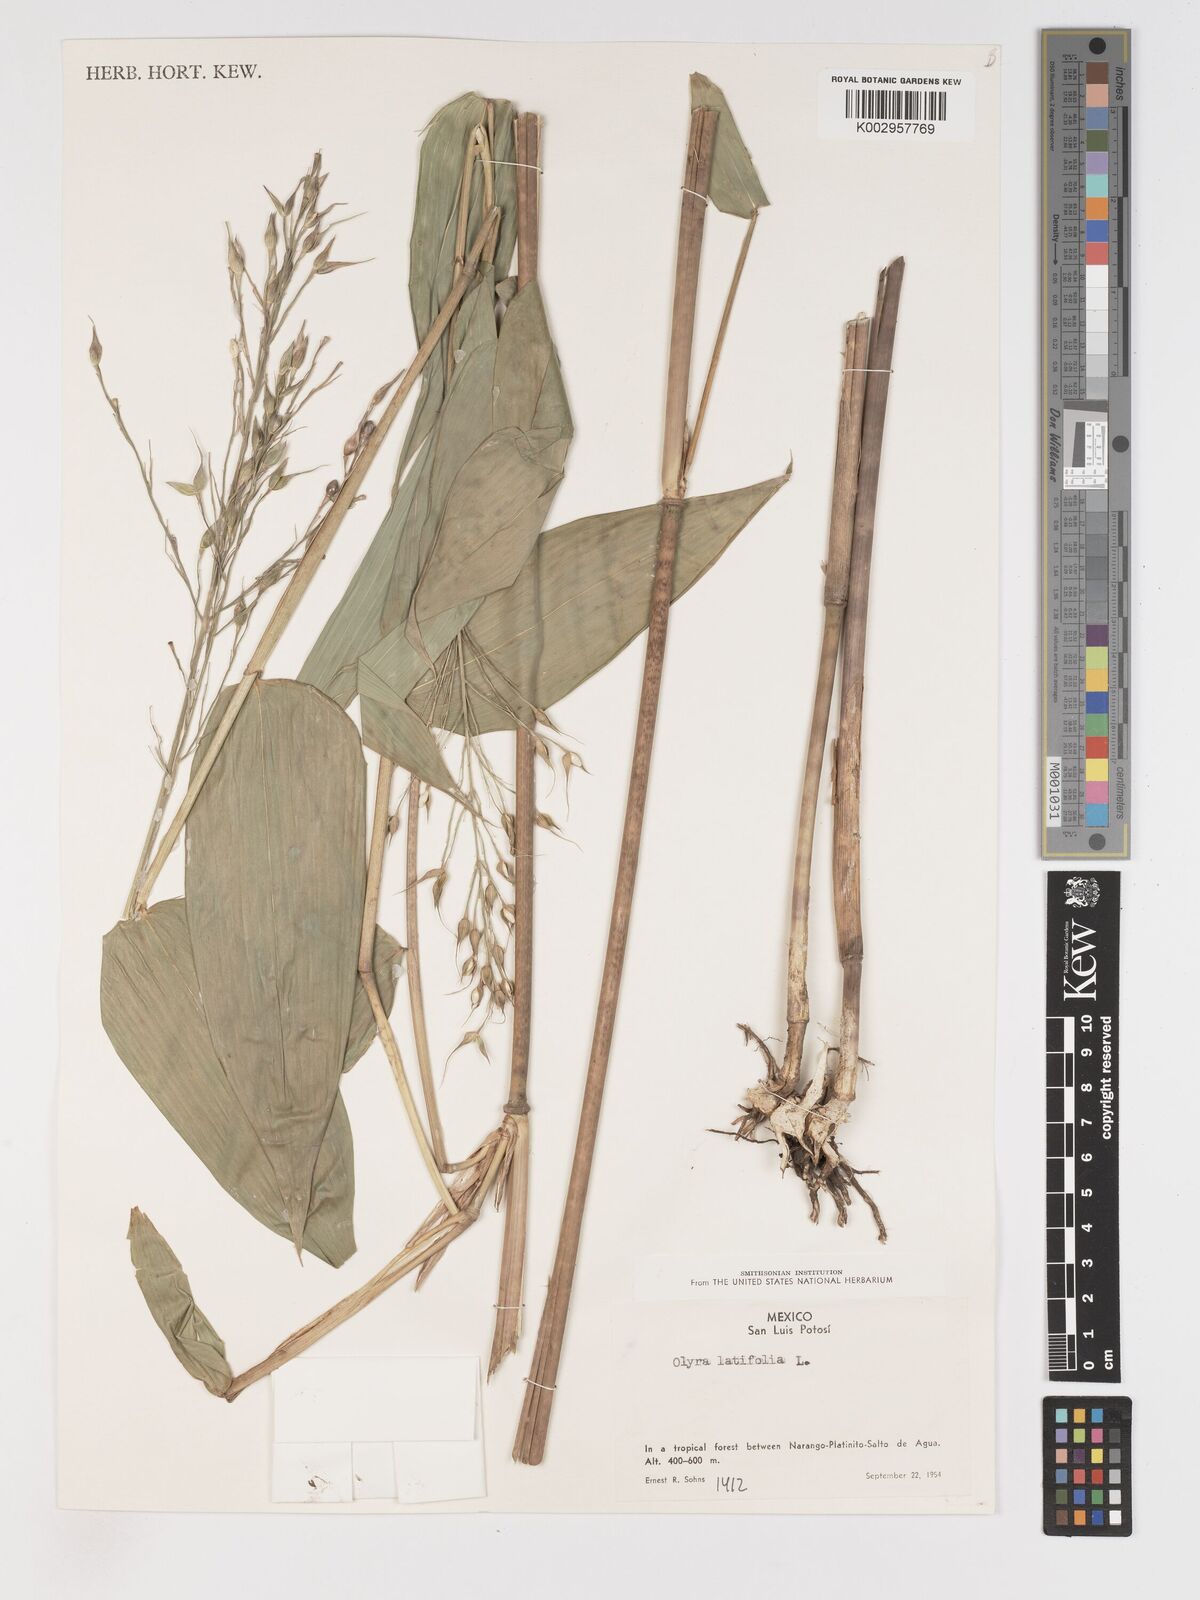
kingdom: Plantae
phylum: Tracheophyta
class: Liliopsida
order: Poales
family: Poaceae
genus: Olyra
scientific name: Olyra latifolia
